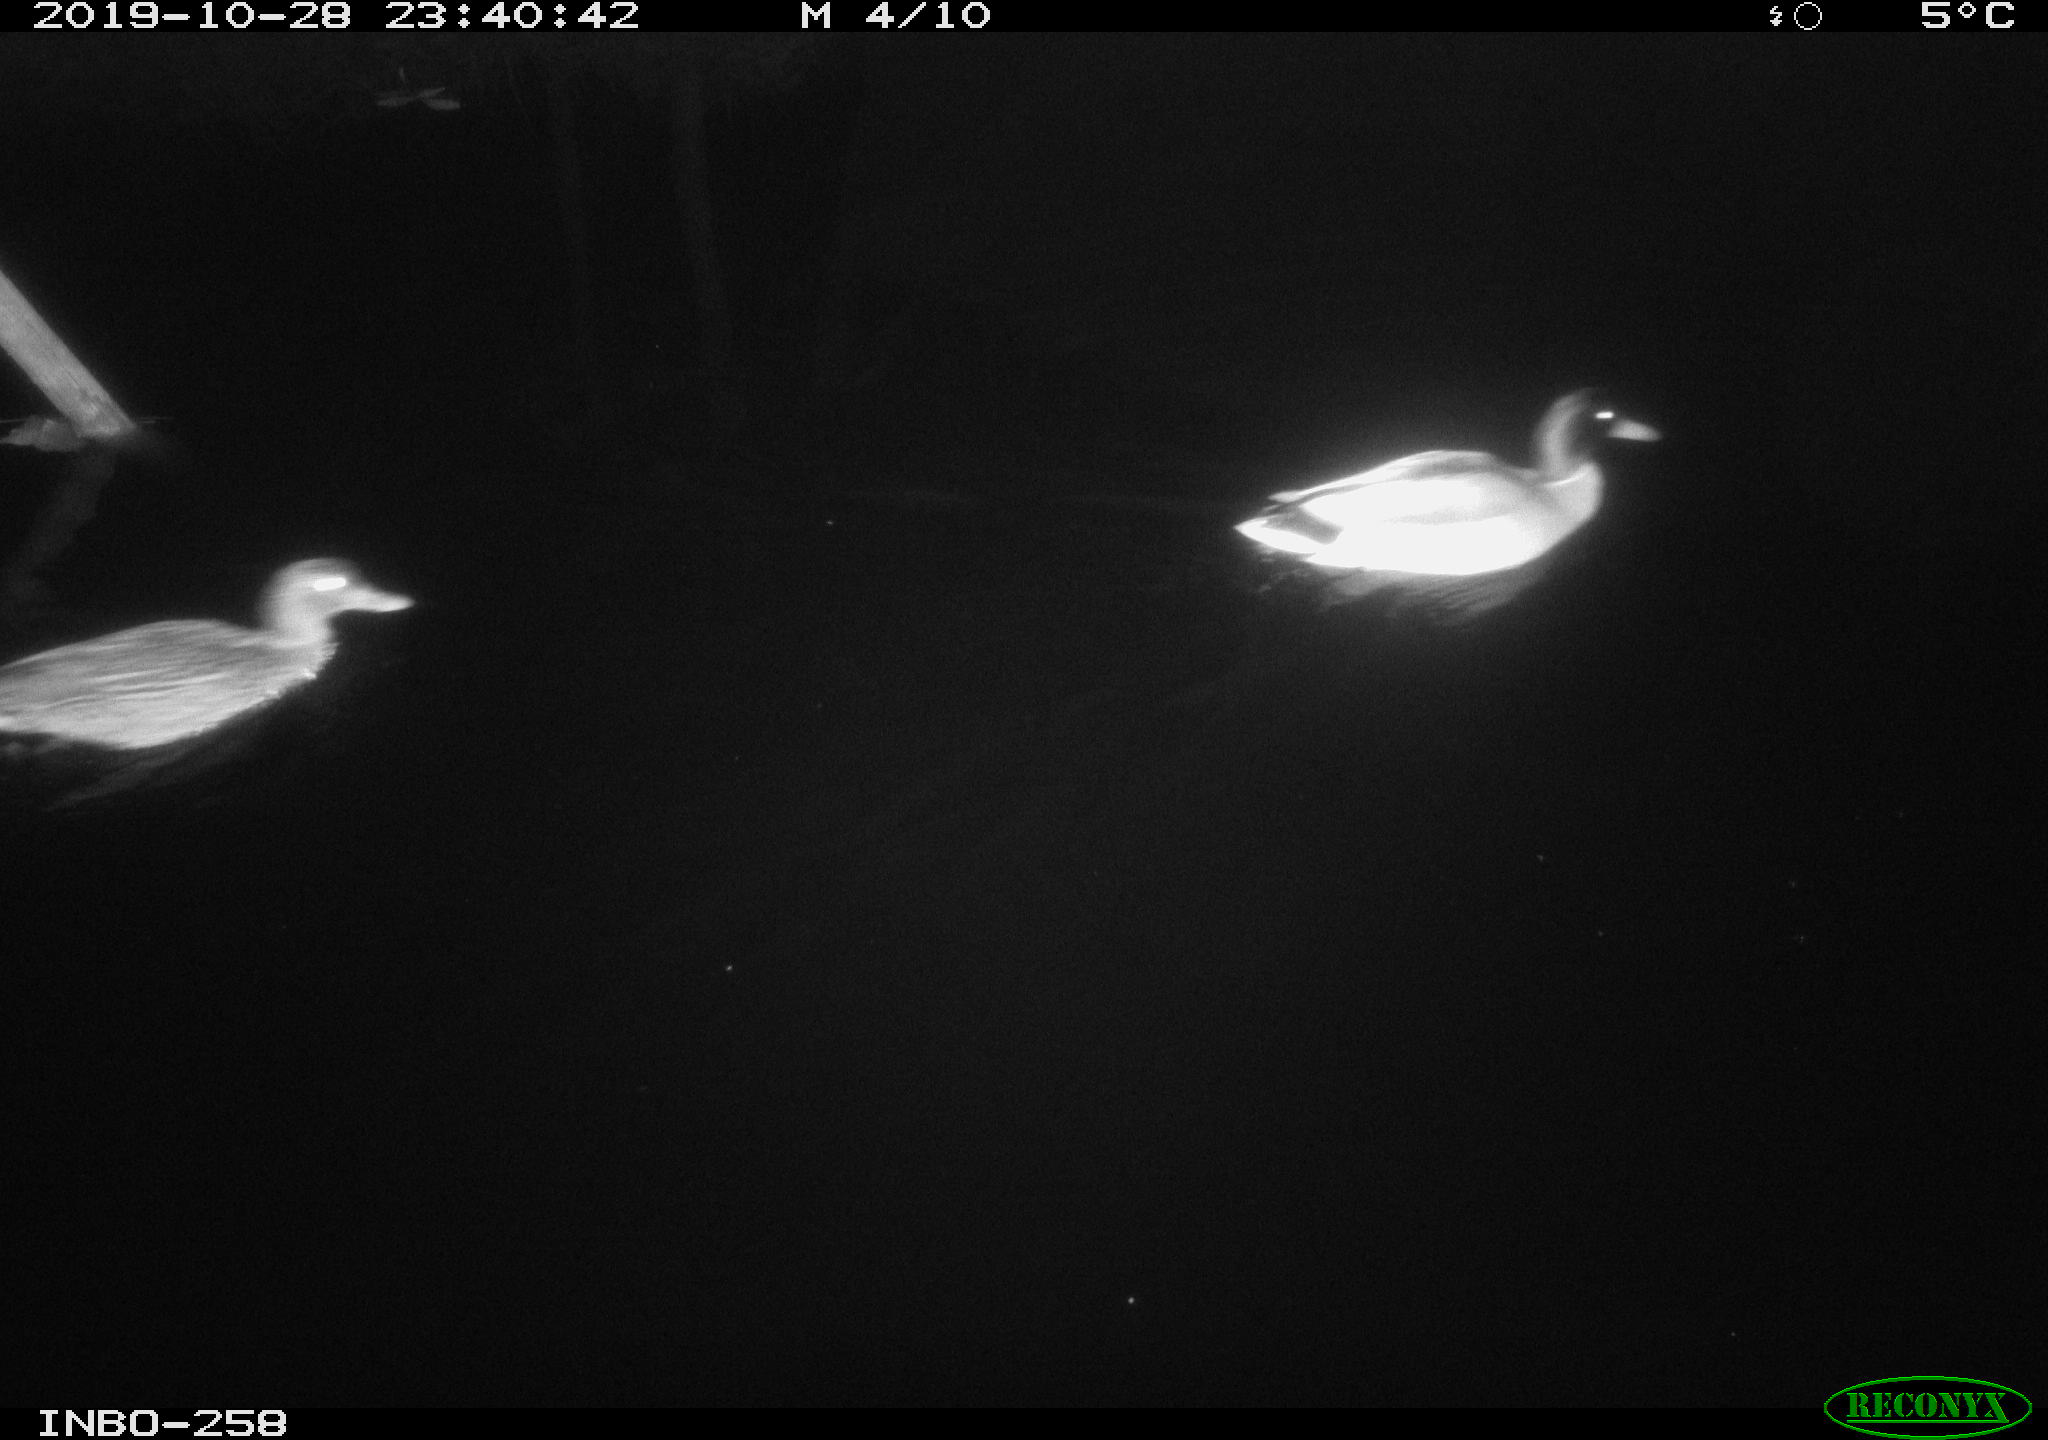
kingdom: Animalia
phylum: Chordata
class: Aves
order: Anseriformes
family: Anatidae
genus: Anas
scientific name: Anas platyrhynchos
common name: Mallard
